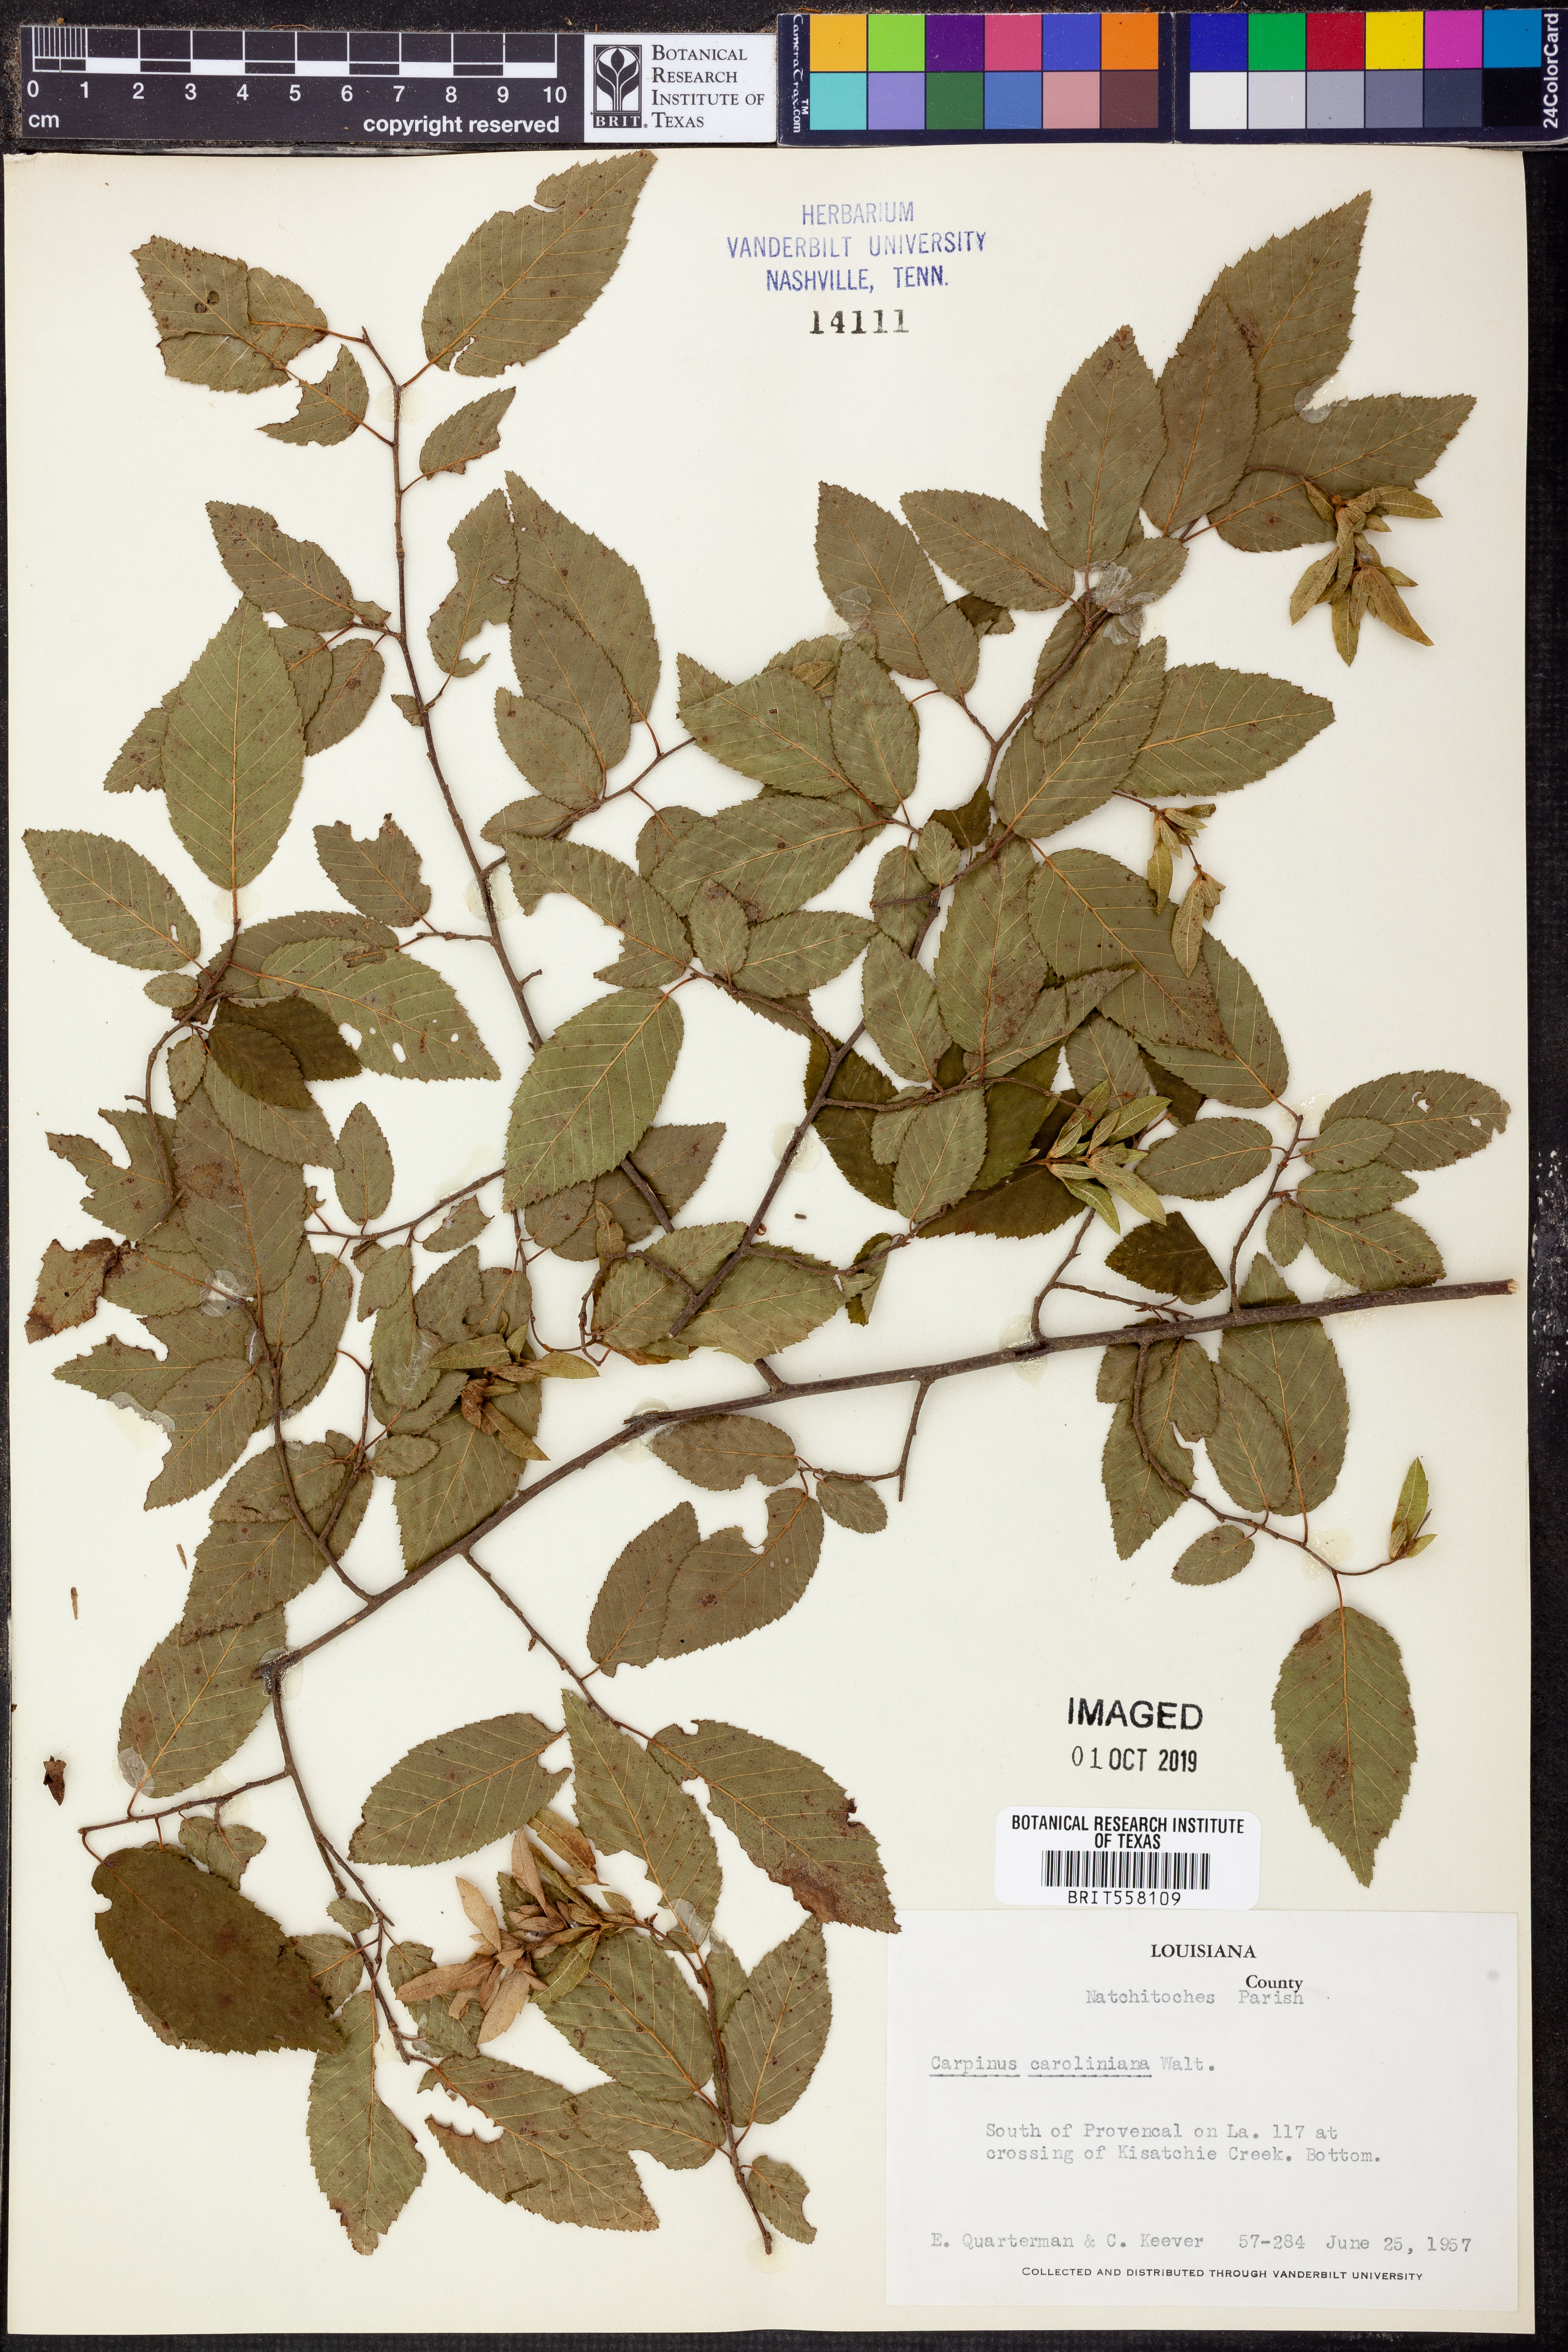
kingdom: Plantae
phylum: Tracheophyta
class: Magnoliopsida
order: Fagales
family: Betulaceae
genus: Carpinus
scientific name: Carpinus caroliniana
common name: American hornbeam
